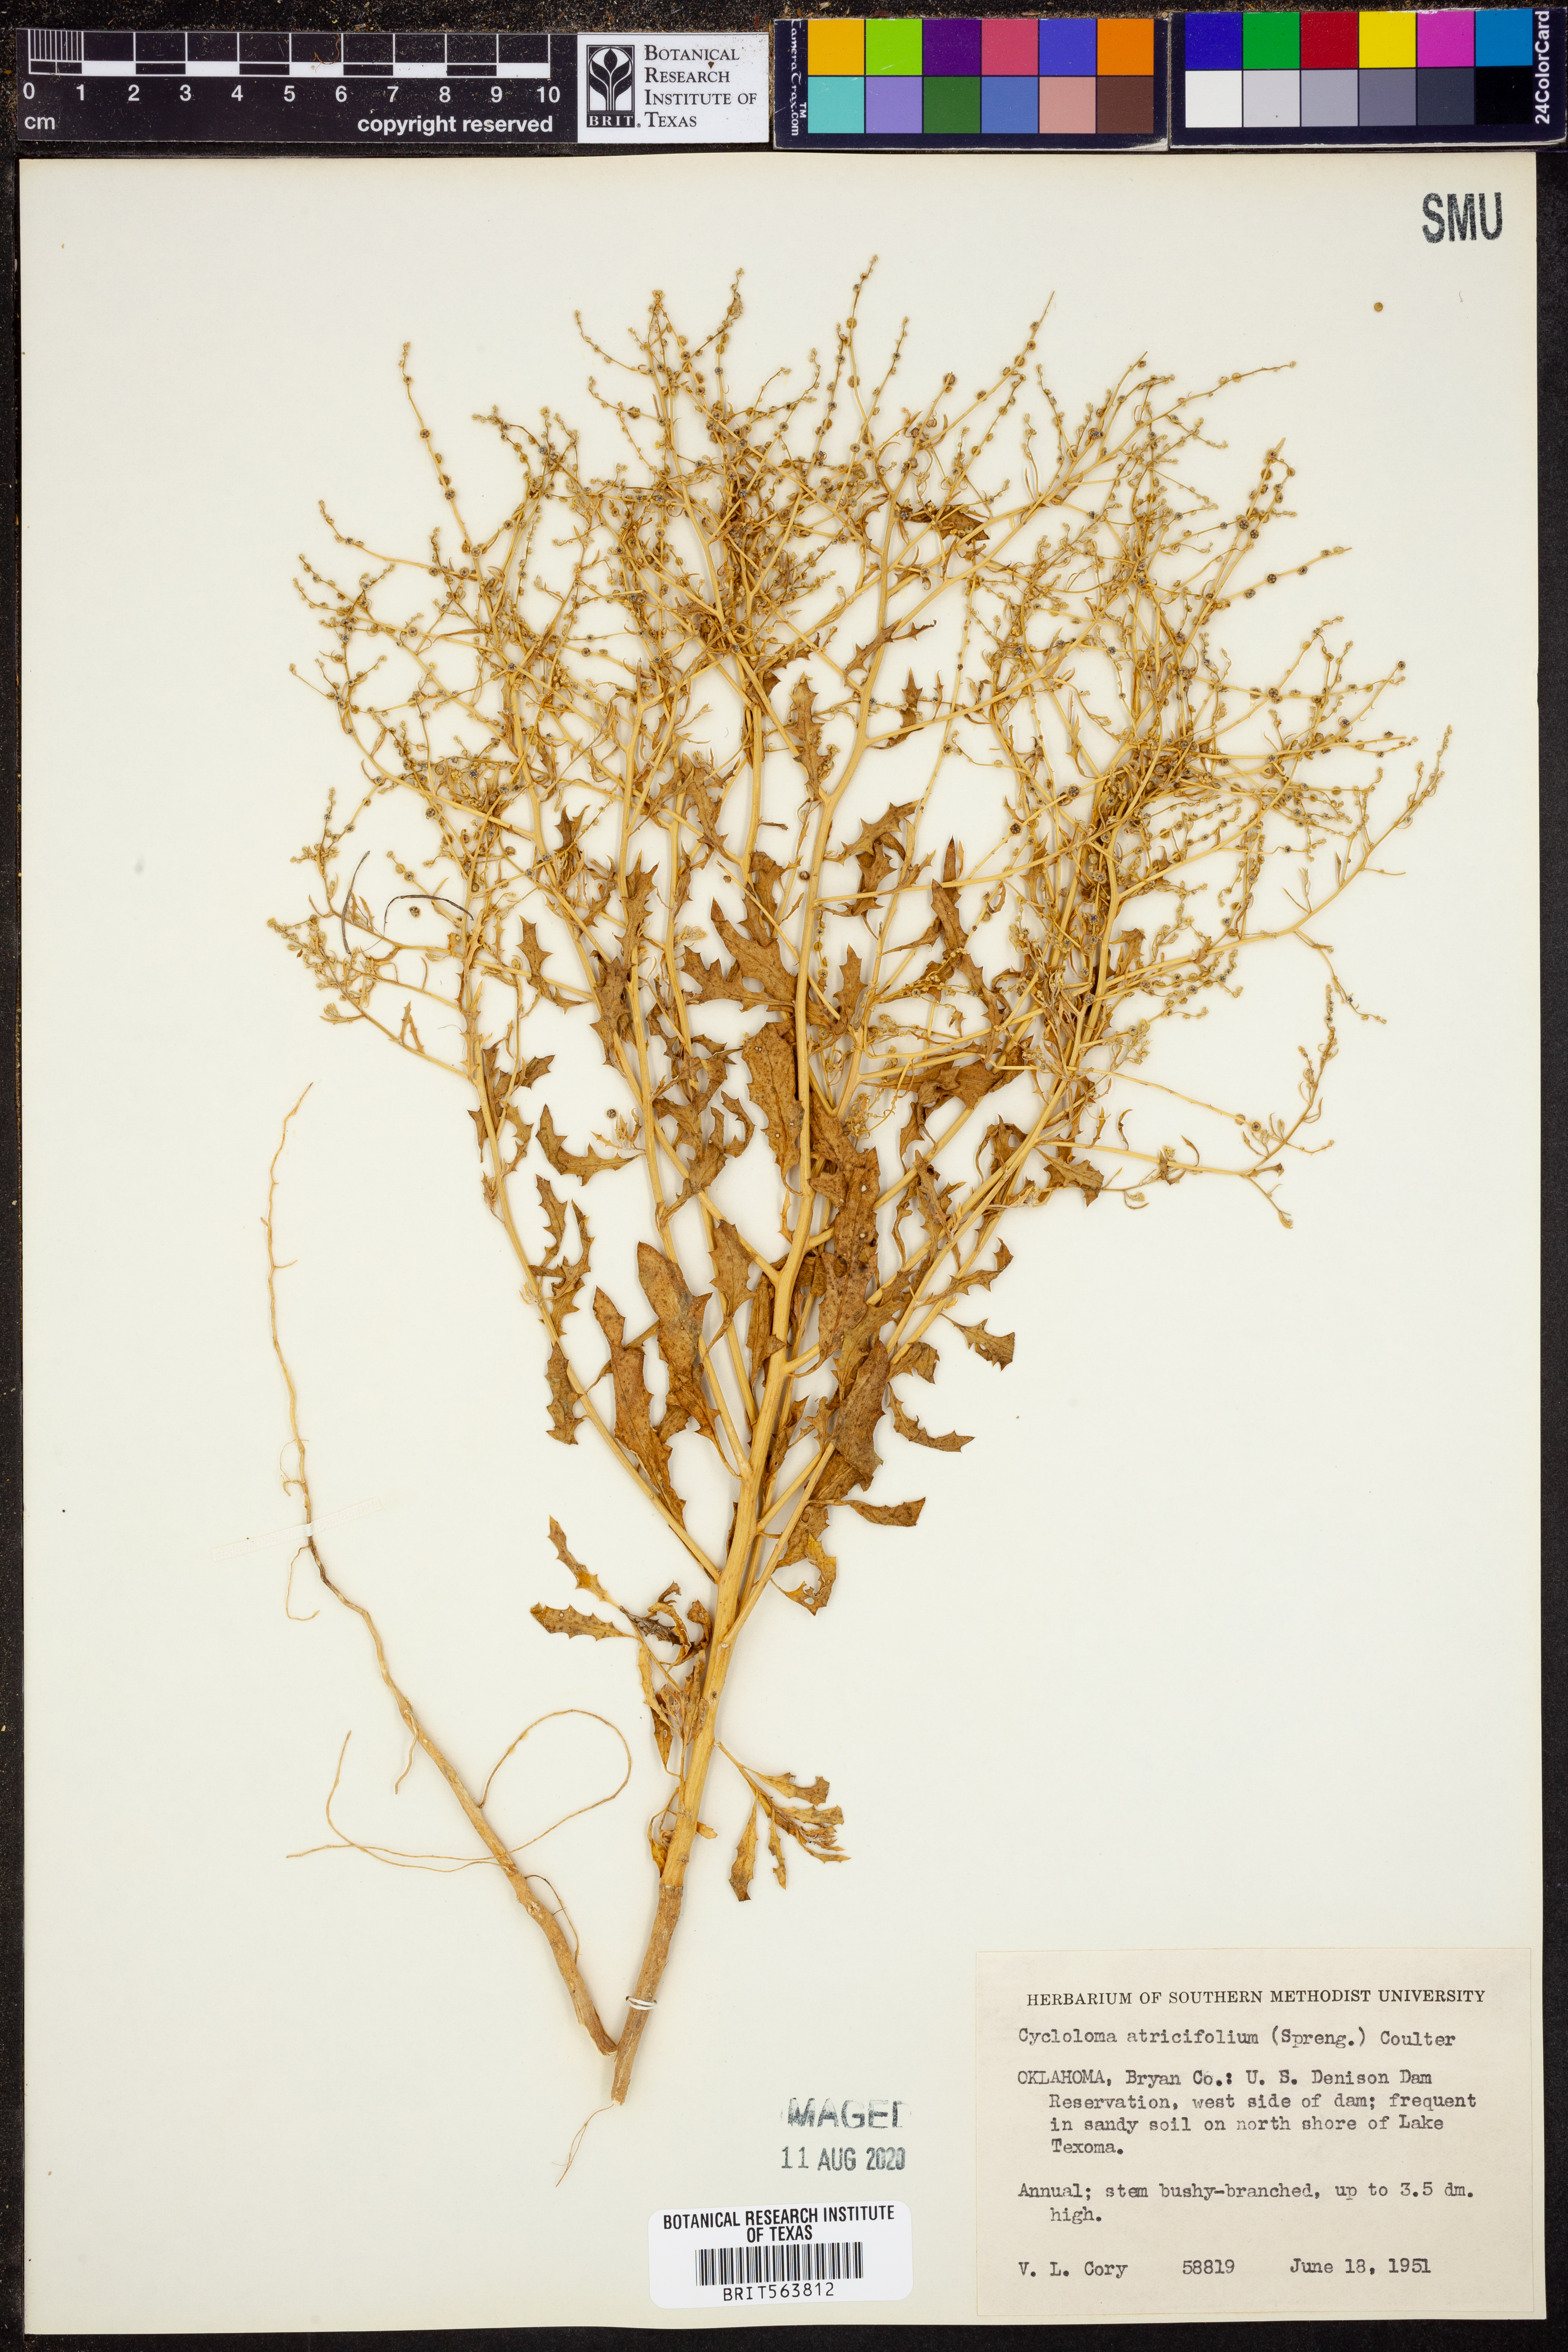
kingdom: Plantae
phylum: Tracheophyta
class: Magnoliopsida
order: Caryophyllales
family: Amaranthaceae
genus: Dysphania
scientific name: Dysphania atriplicifolia
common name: Plains tumbleweed
